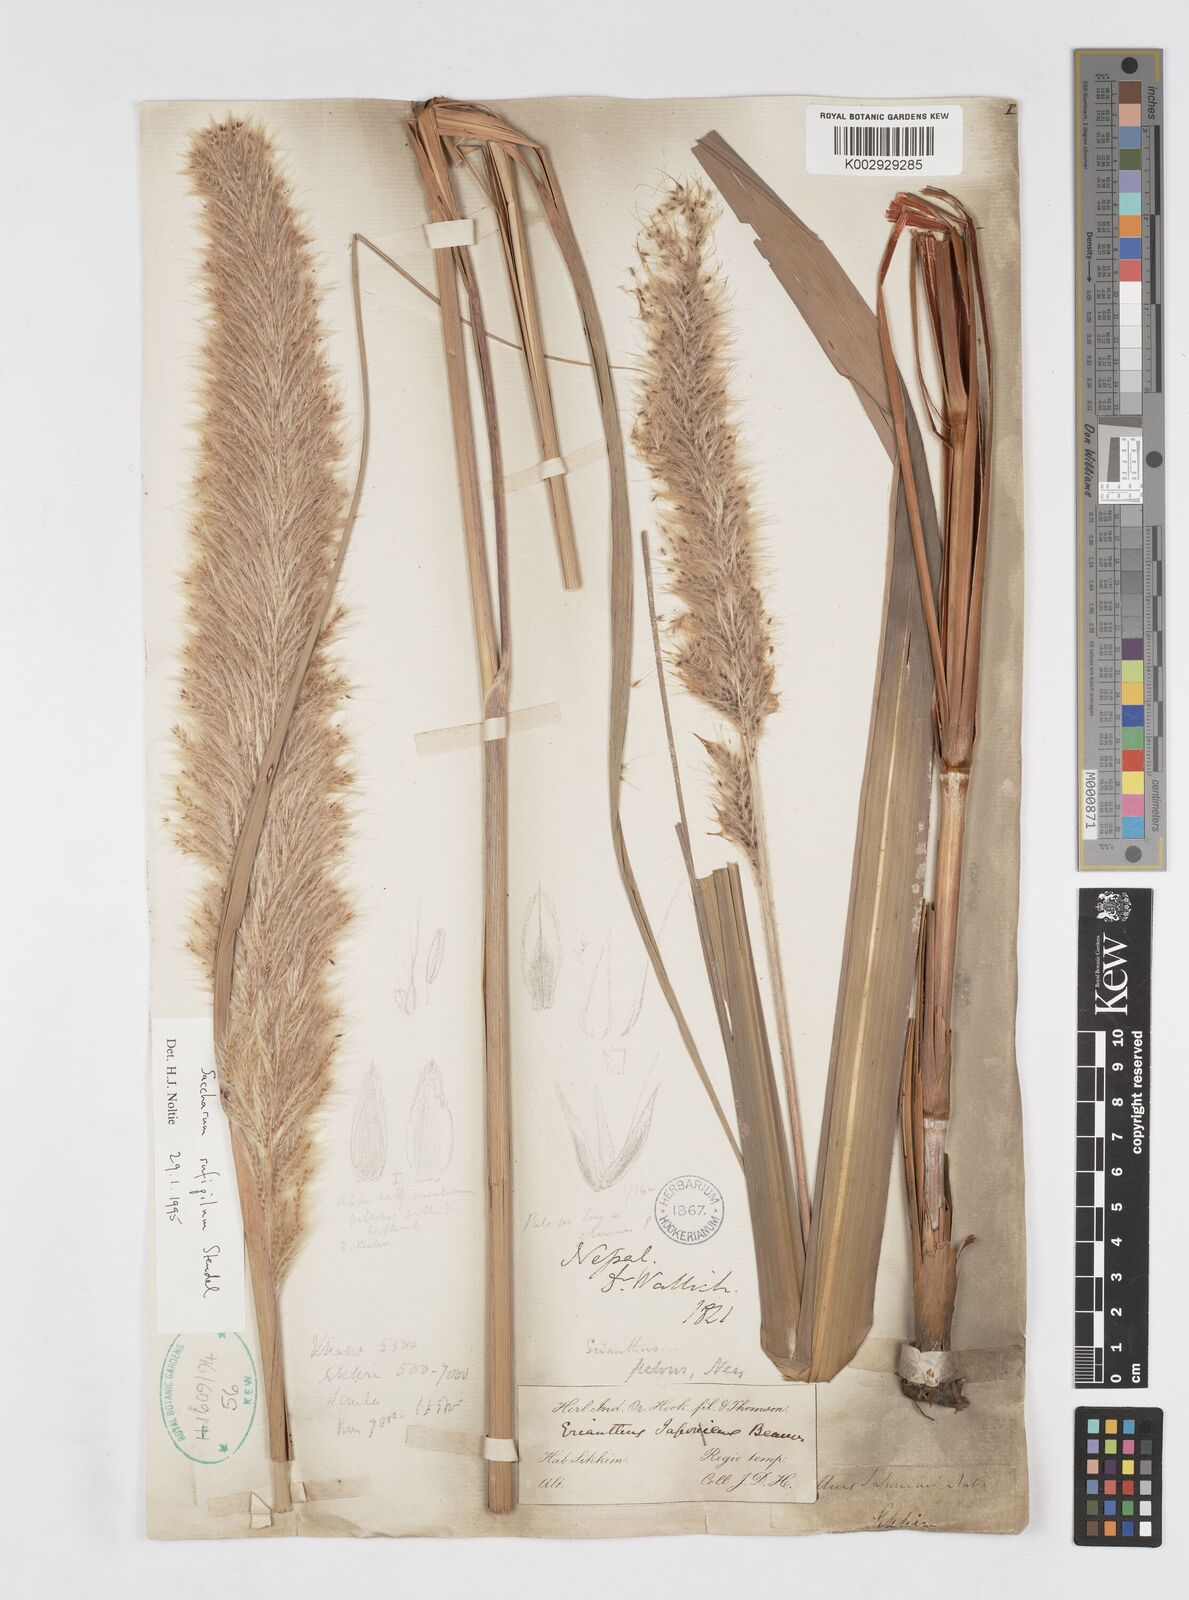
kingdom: Plantae
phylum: Tracheophyta
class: Liliopsida
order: Poales
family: Poaceae
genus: Tripidium
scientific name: Tripidium rufipilum
